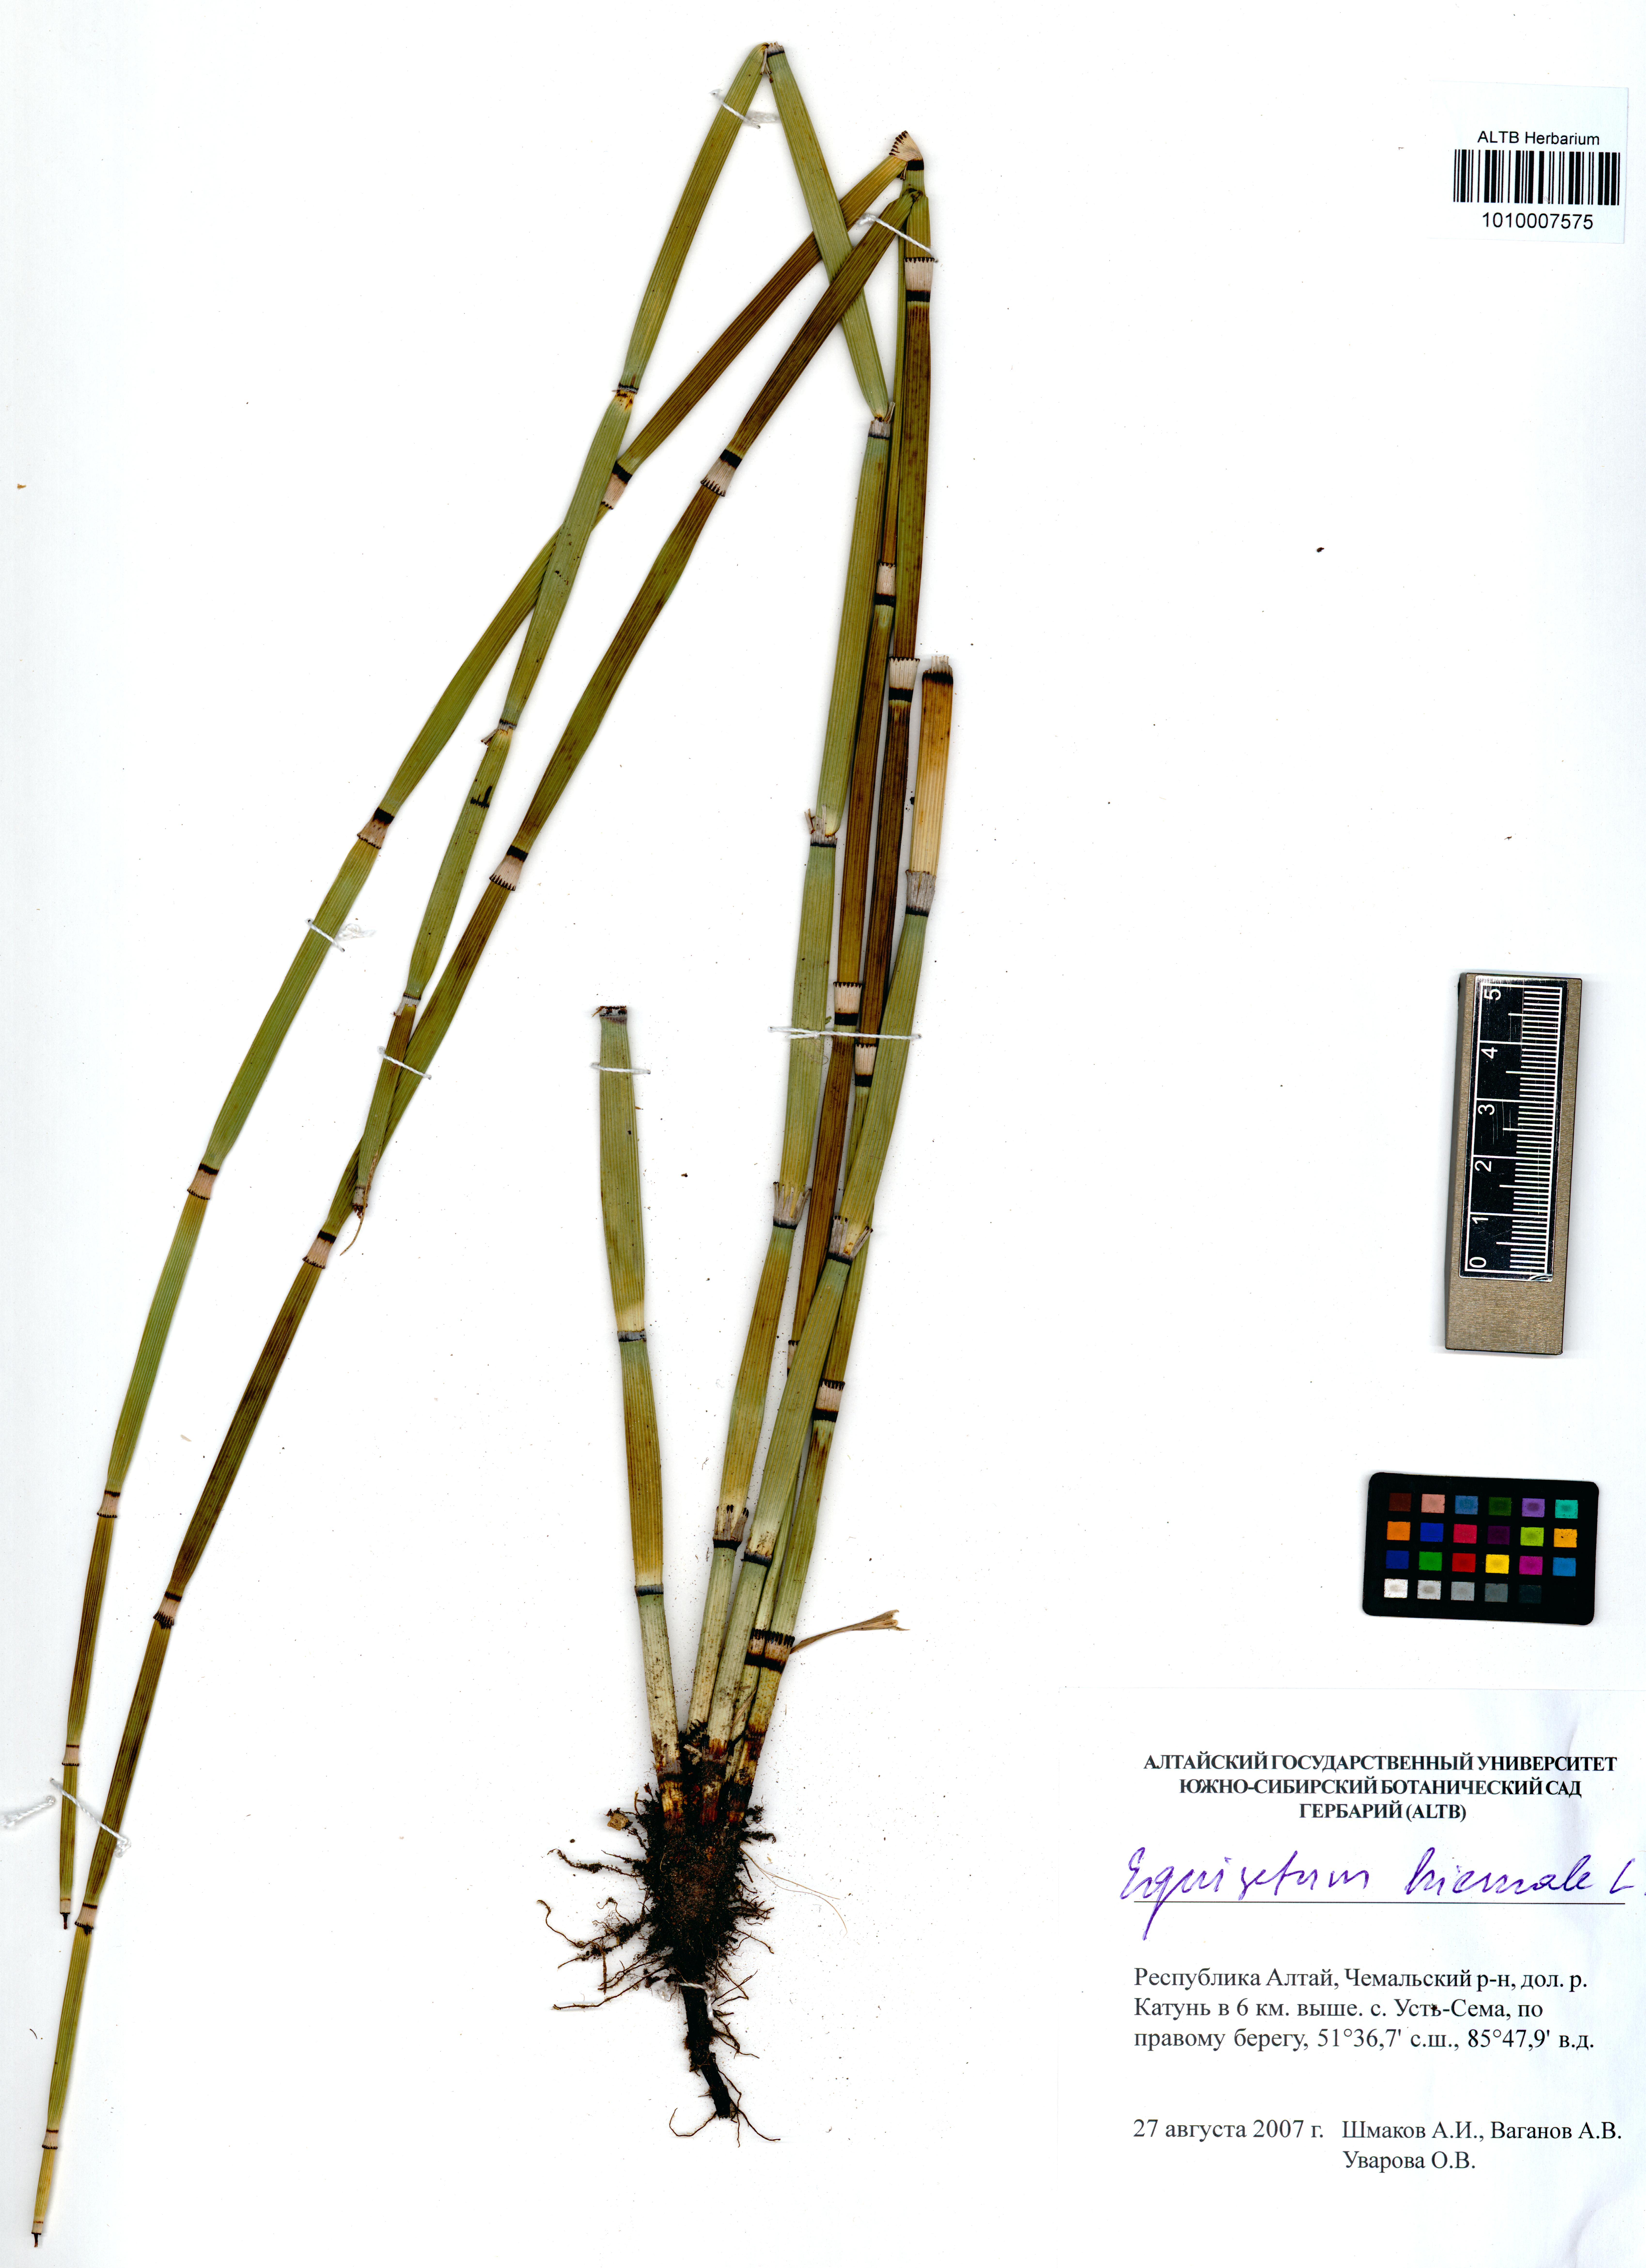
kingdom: Plantae
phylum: Tracheophyta
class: Polypodiopsida
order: Equisetales
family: Equisetaceae
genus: Equisetum
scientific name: Equisetum hyemale
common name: Rough horsetail
